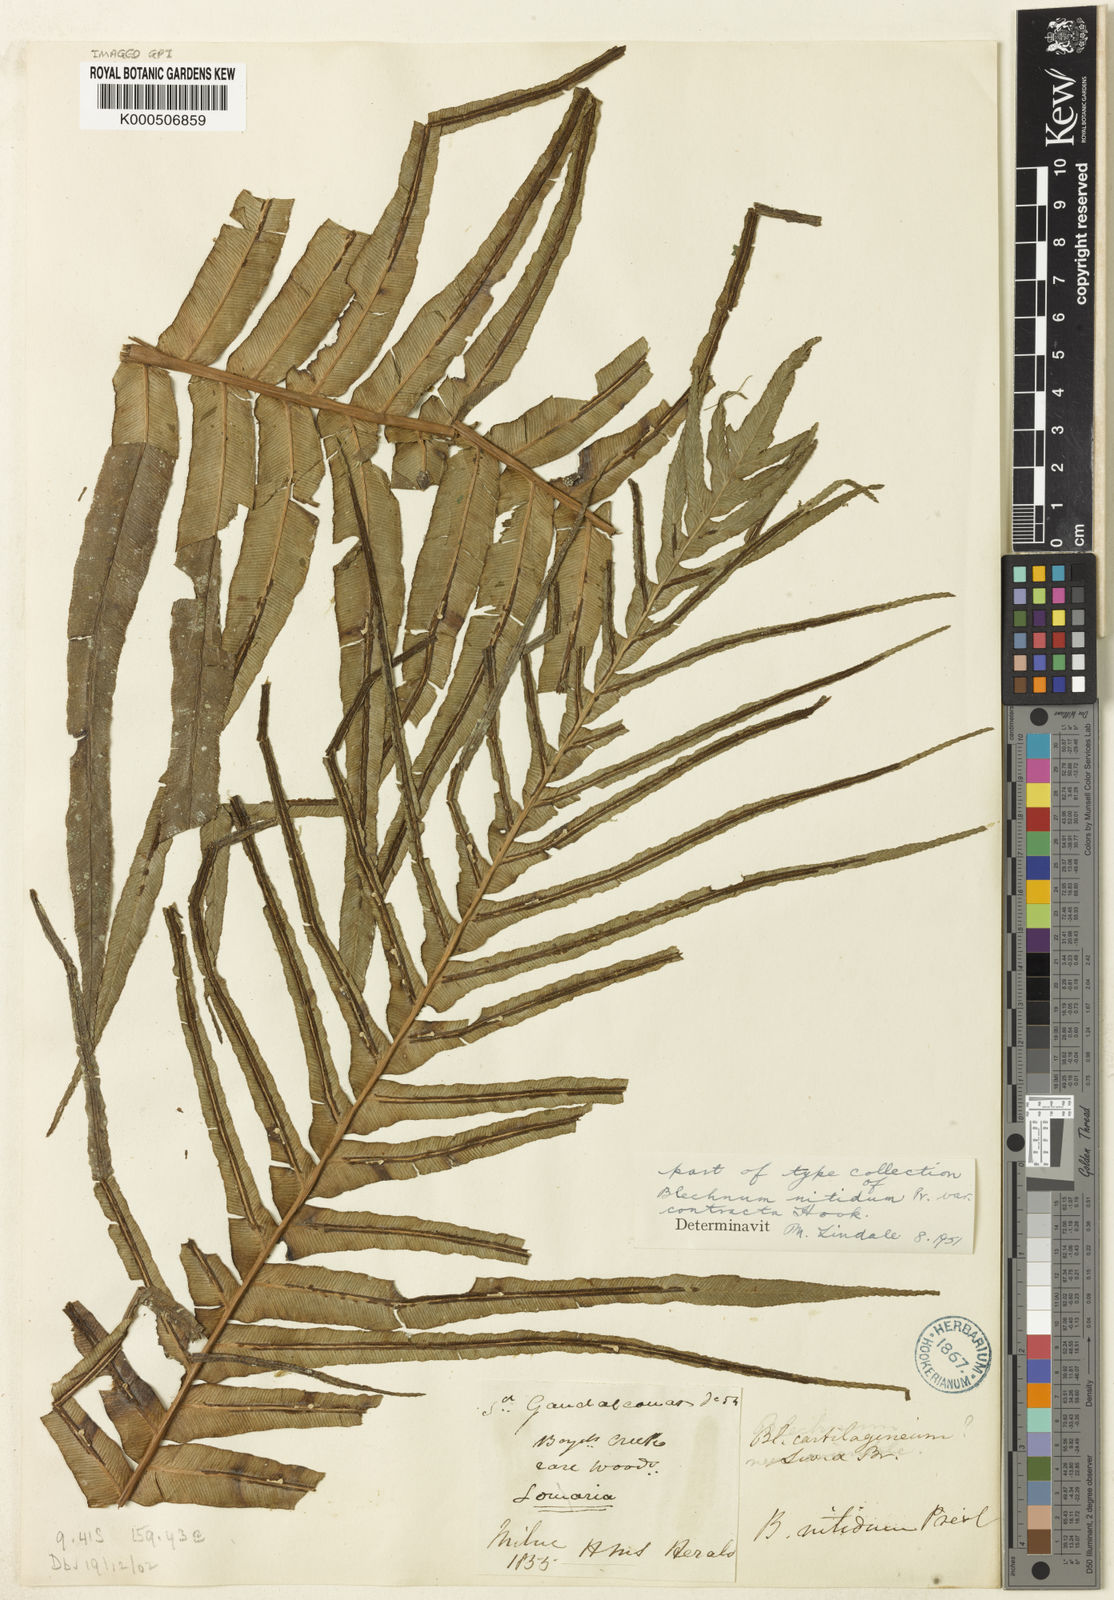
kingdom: Plantae
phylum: Tracheophyta
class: Polypodiopsida
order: Polypodiales
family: Blechnaceae
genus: Oceaniopteris
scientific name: Oceaniopteris egregia
